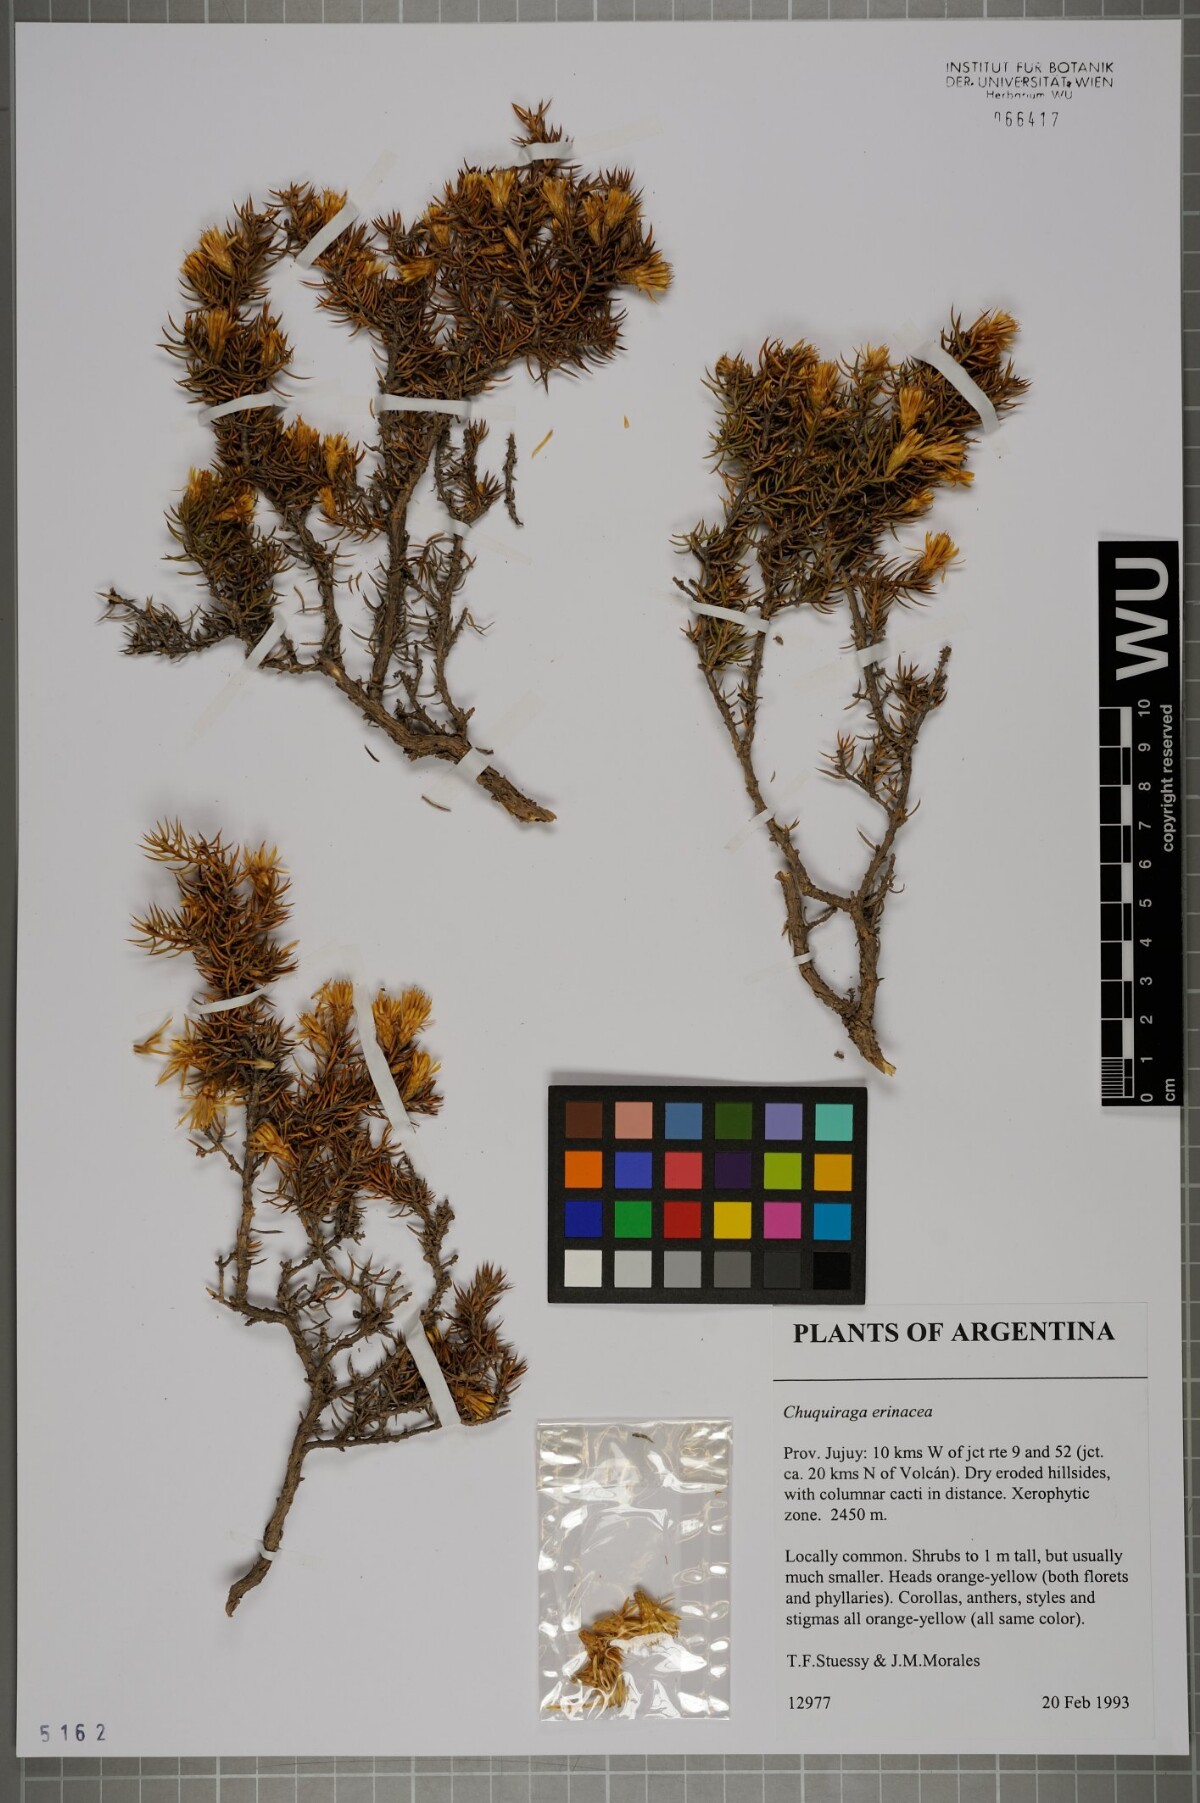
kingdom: Plantae
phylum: Tracheophyta
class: Magnoliopsida
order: Asterales
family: Asteraceae
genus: Chuquiraga
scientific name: Chuquiraga erinacea
